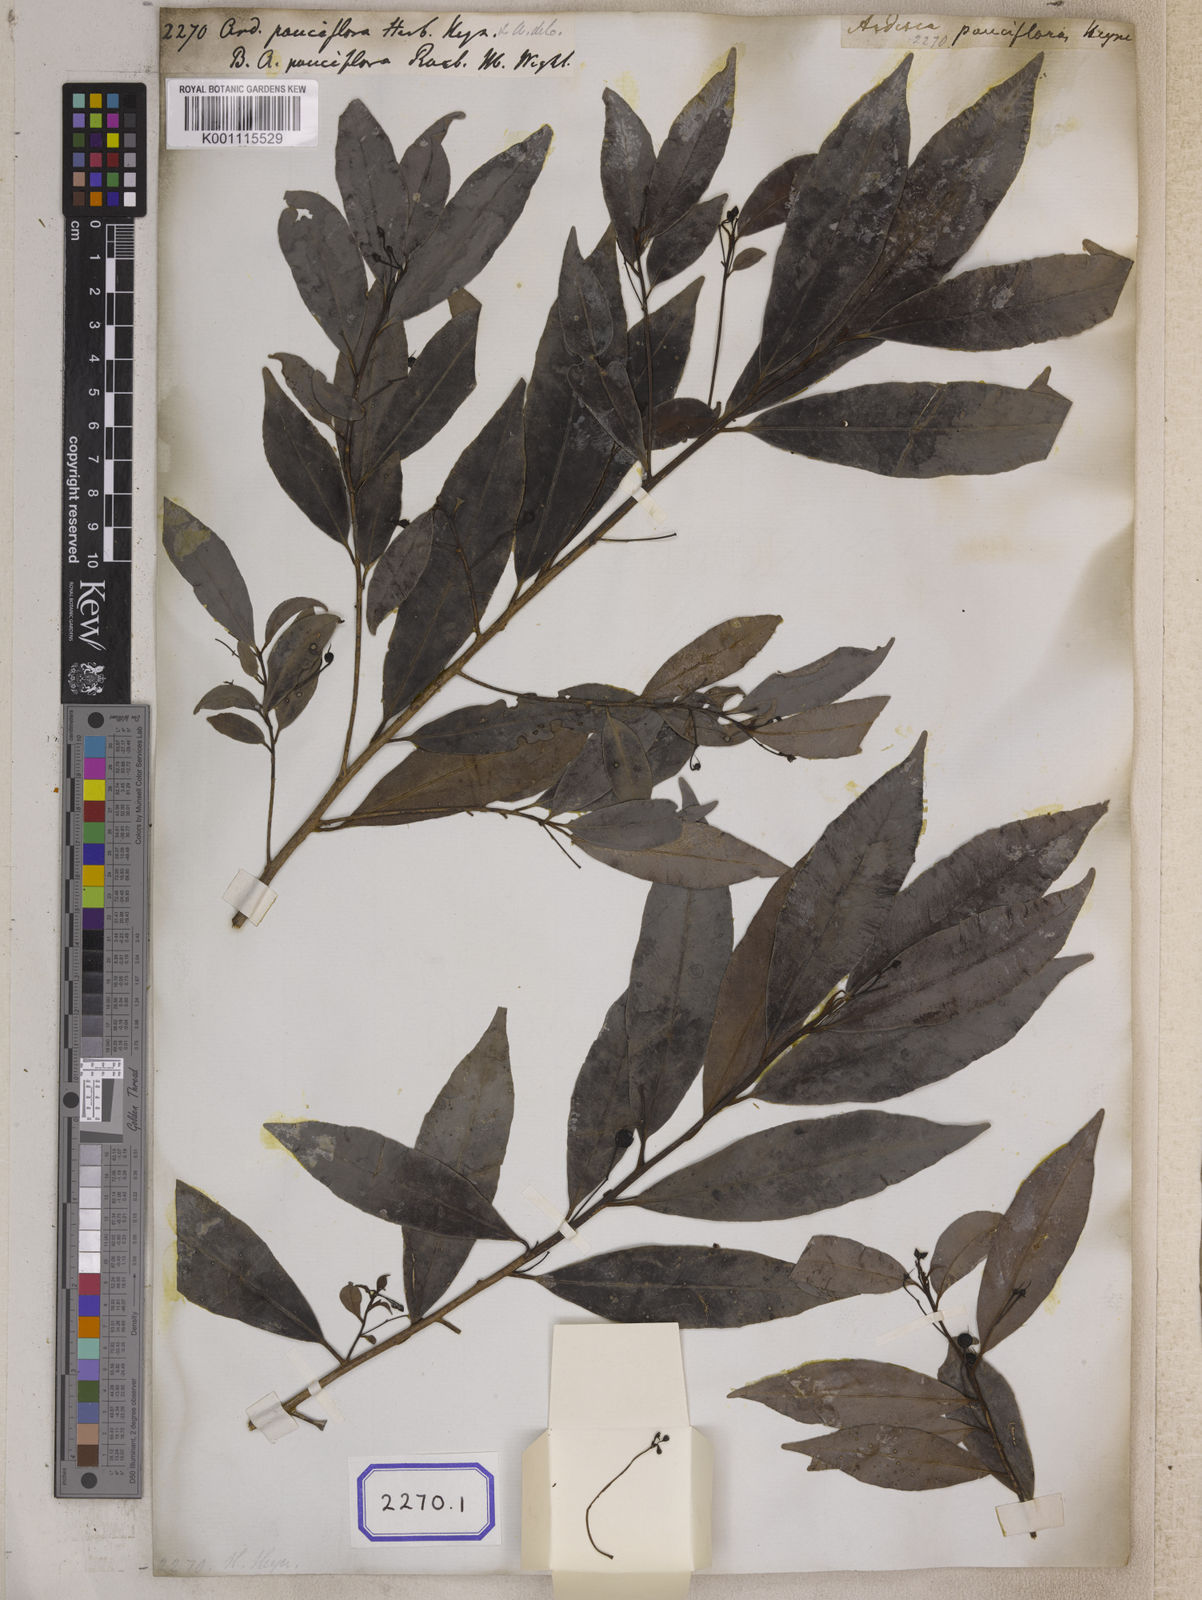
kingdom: Plantae
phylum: Tracheophyta
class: Magnoliopsida
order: Ericales
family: Primulaceae
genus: Ardisia
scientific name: Ardisia pauciflora
